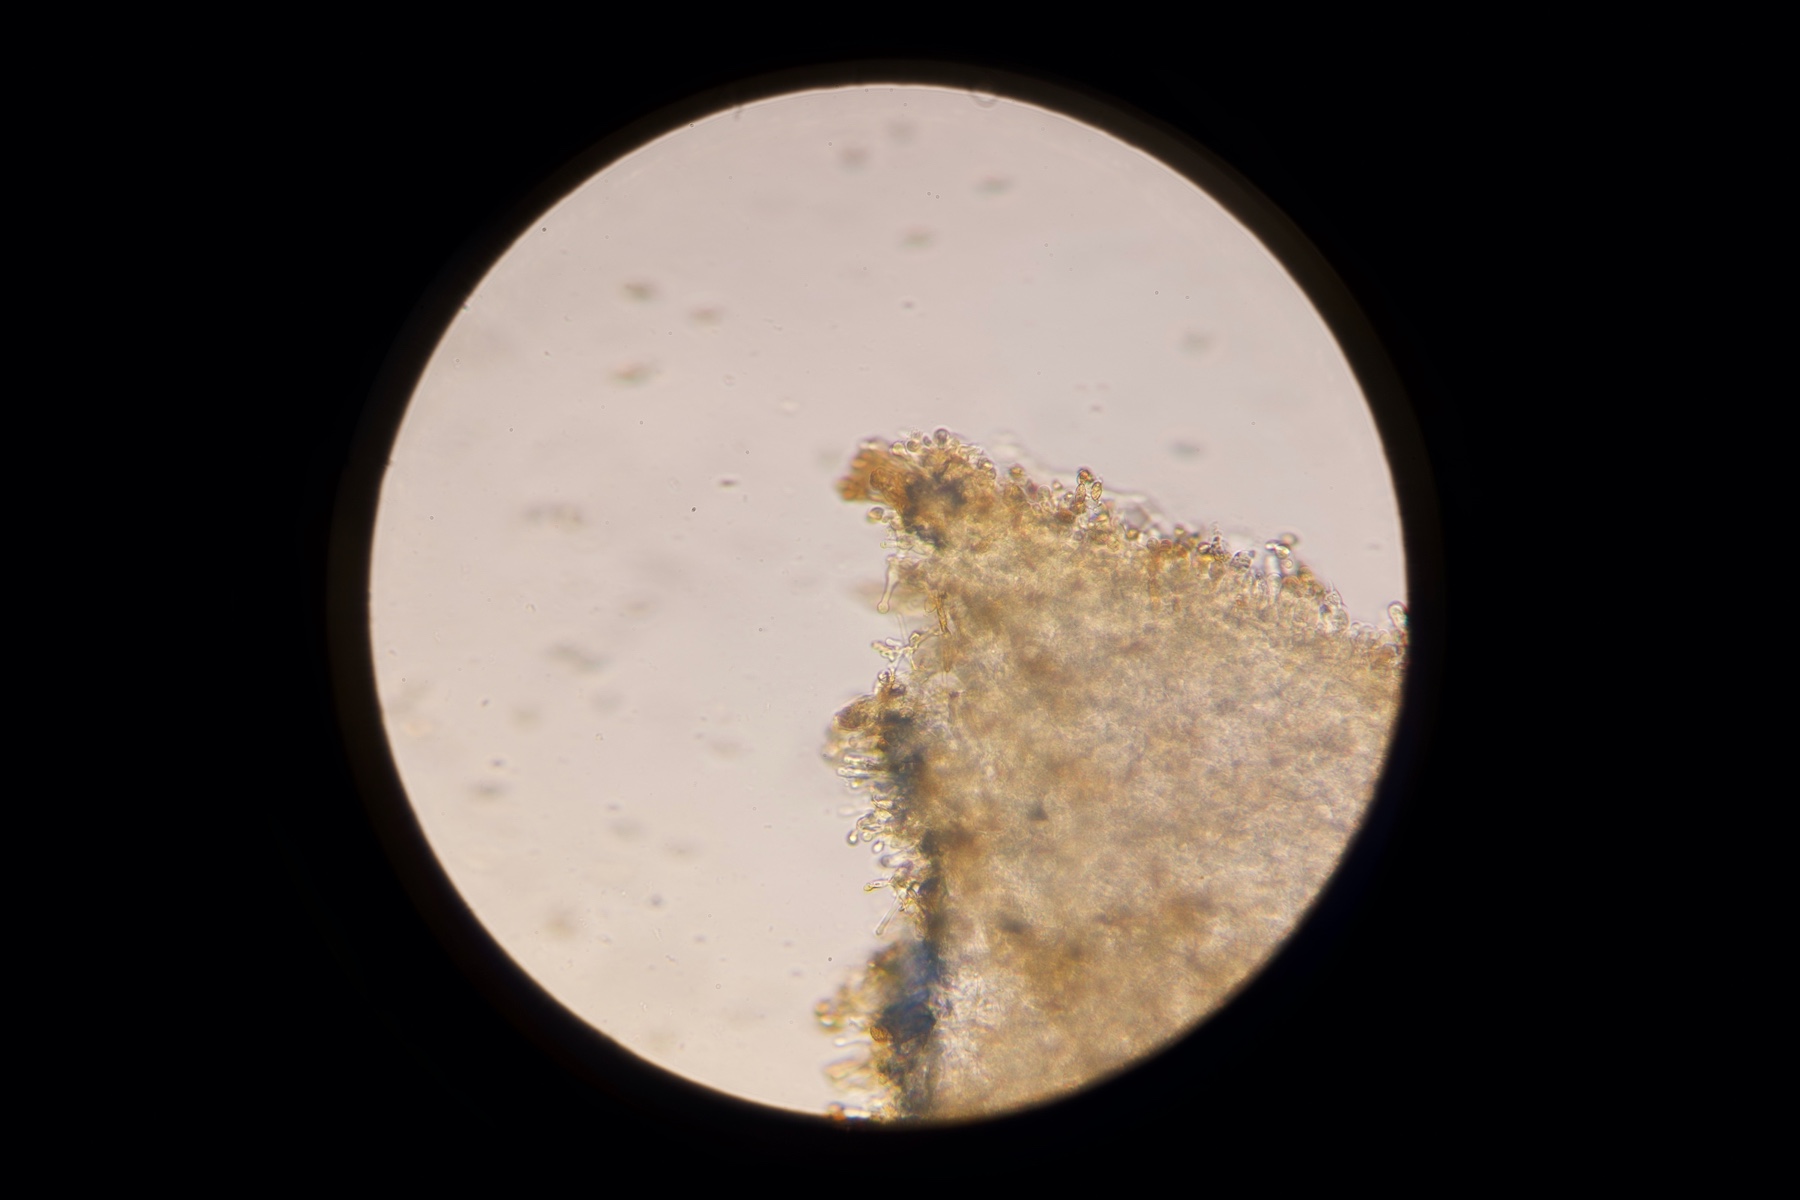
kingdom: Fungi
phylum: Basidiomycota
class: Agaricomycetes
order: Agaricales
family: Hymenogastraceae
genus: Gymnopilus
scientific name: Gymnopilus spectabilis
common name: fibret flammehat
